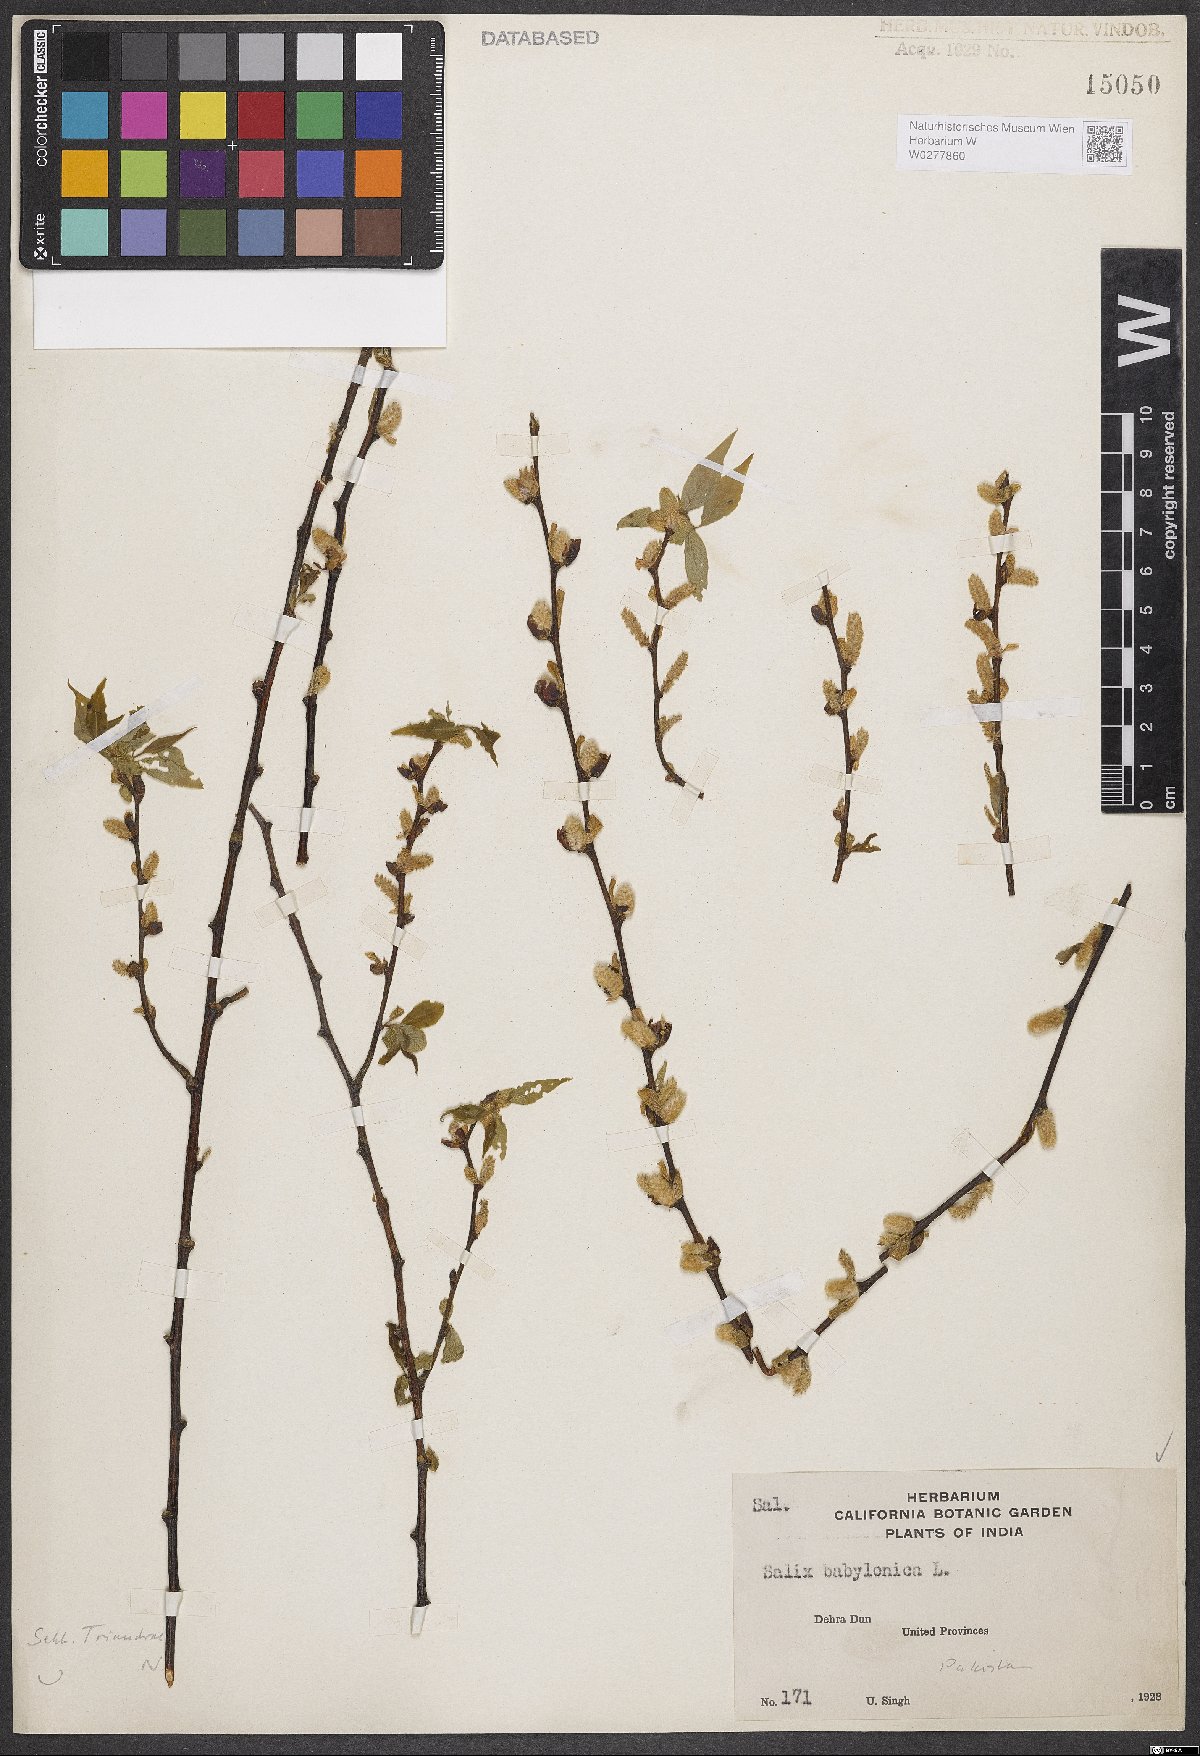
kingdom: Plantae
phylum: Tracheophyta
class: Magnoliopsida
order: Malpighiales
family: Salicaceae
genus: Salix
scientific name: Salix babylonica
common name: Weeping willow
